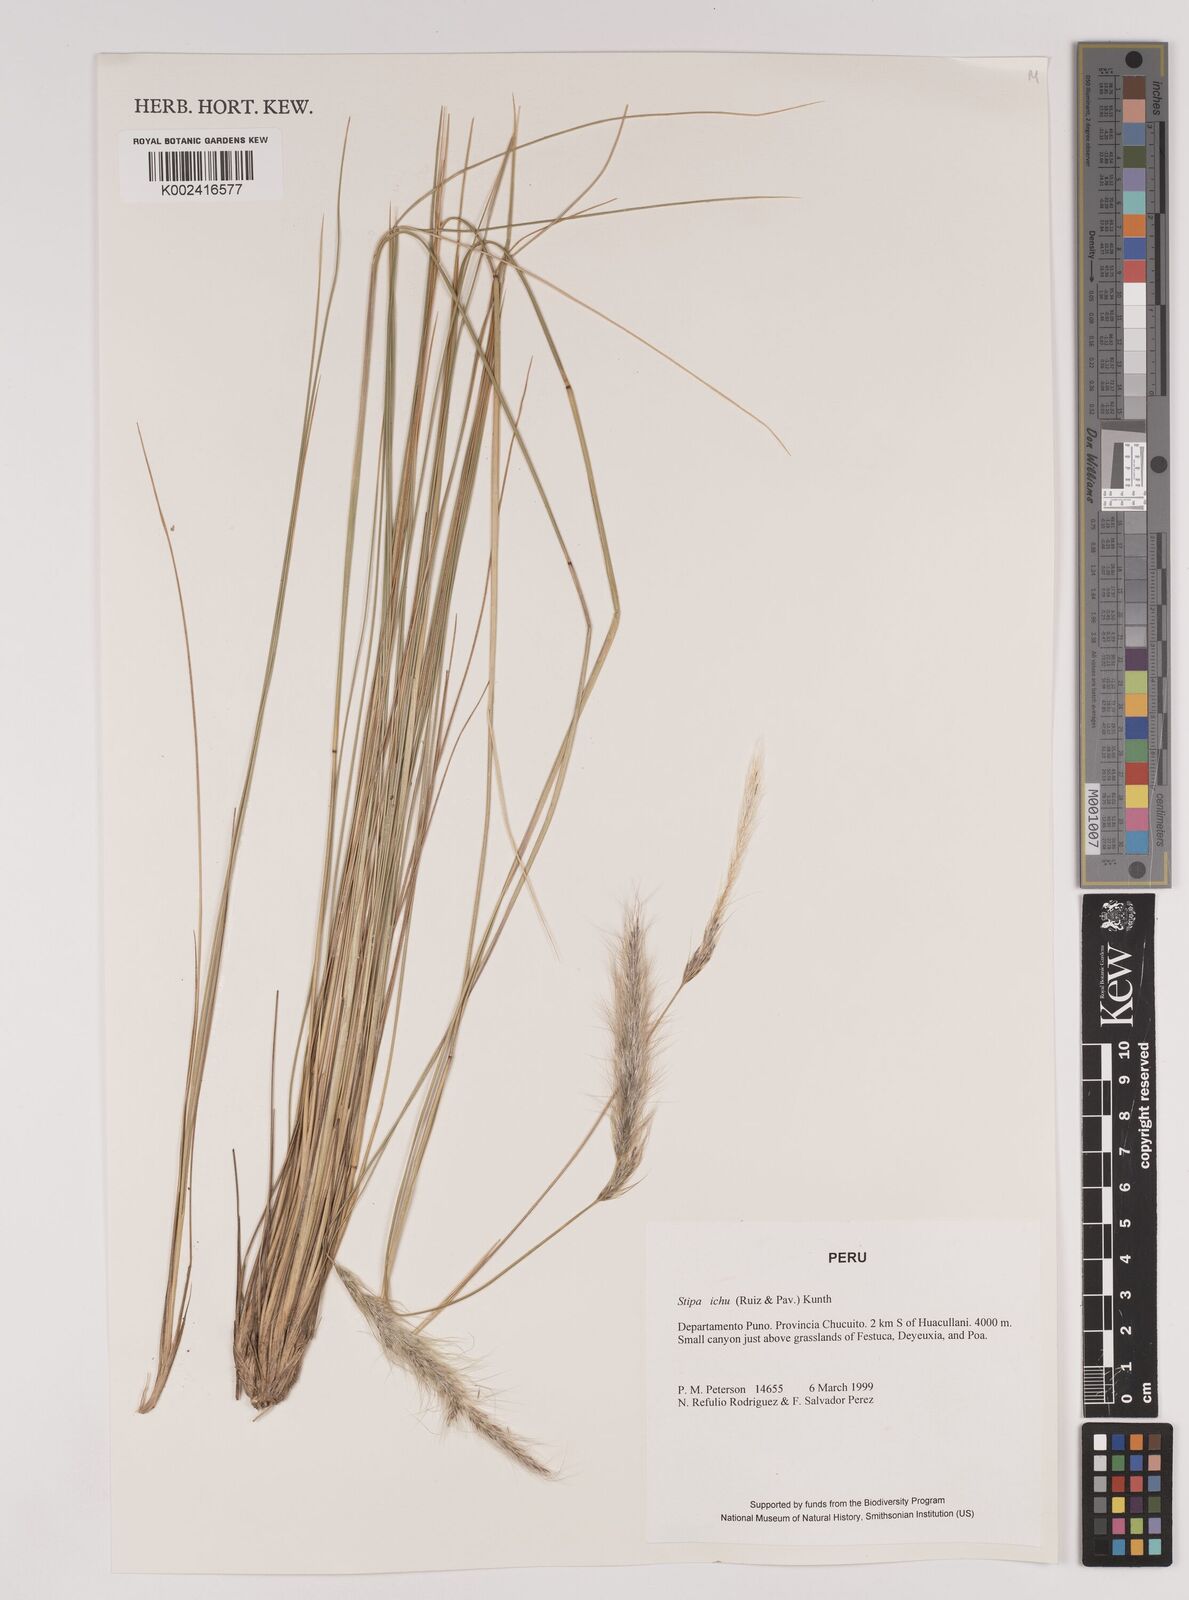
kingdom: Plantae
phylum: Tracheophyta
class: Liliopsida
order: Poales
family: Poaceae
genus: Jarava
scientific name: Jarava leptostachya
